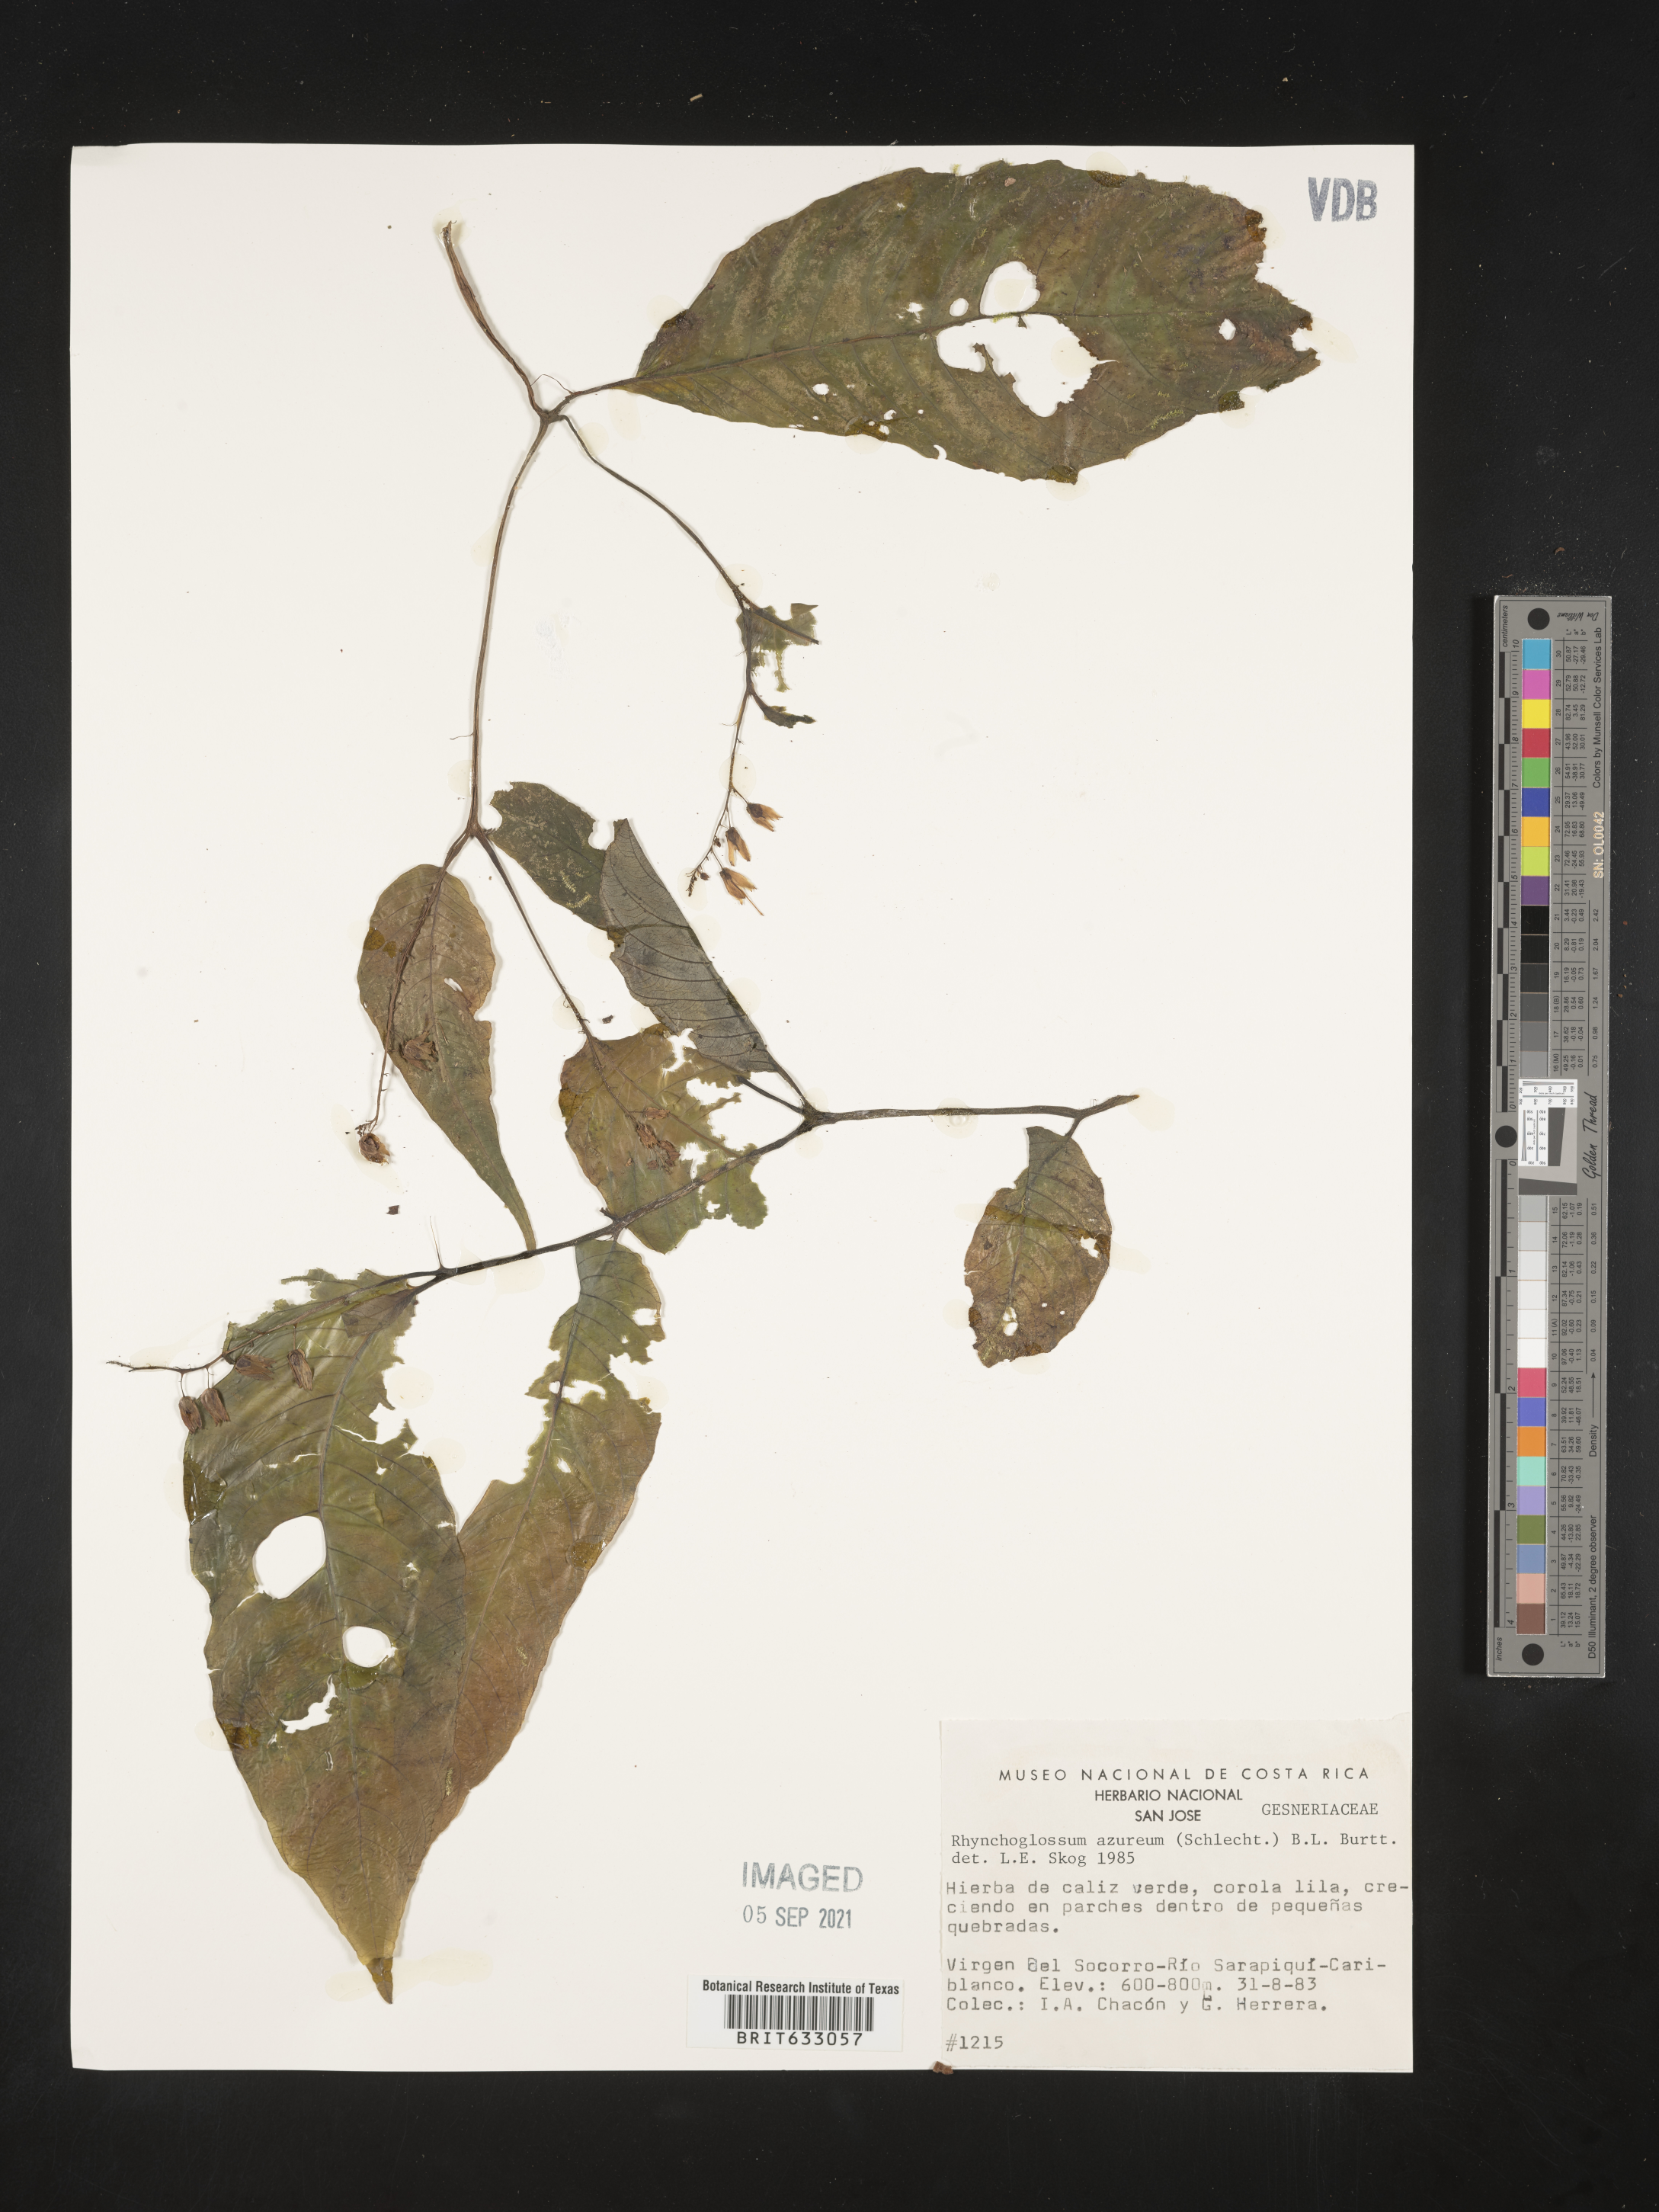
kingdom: Plantae
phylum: Tracheophyta
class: Magnoliopsida
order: Lamiales
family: Gesneriaceae
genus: Rhynchoglossum
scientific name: Rhynchoglossum azureum
